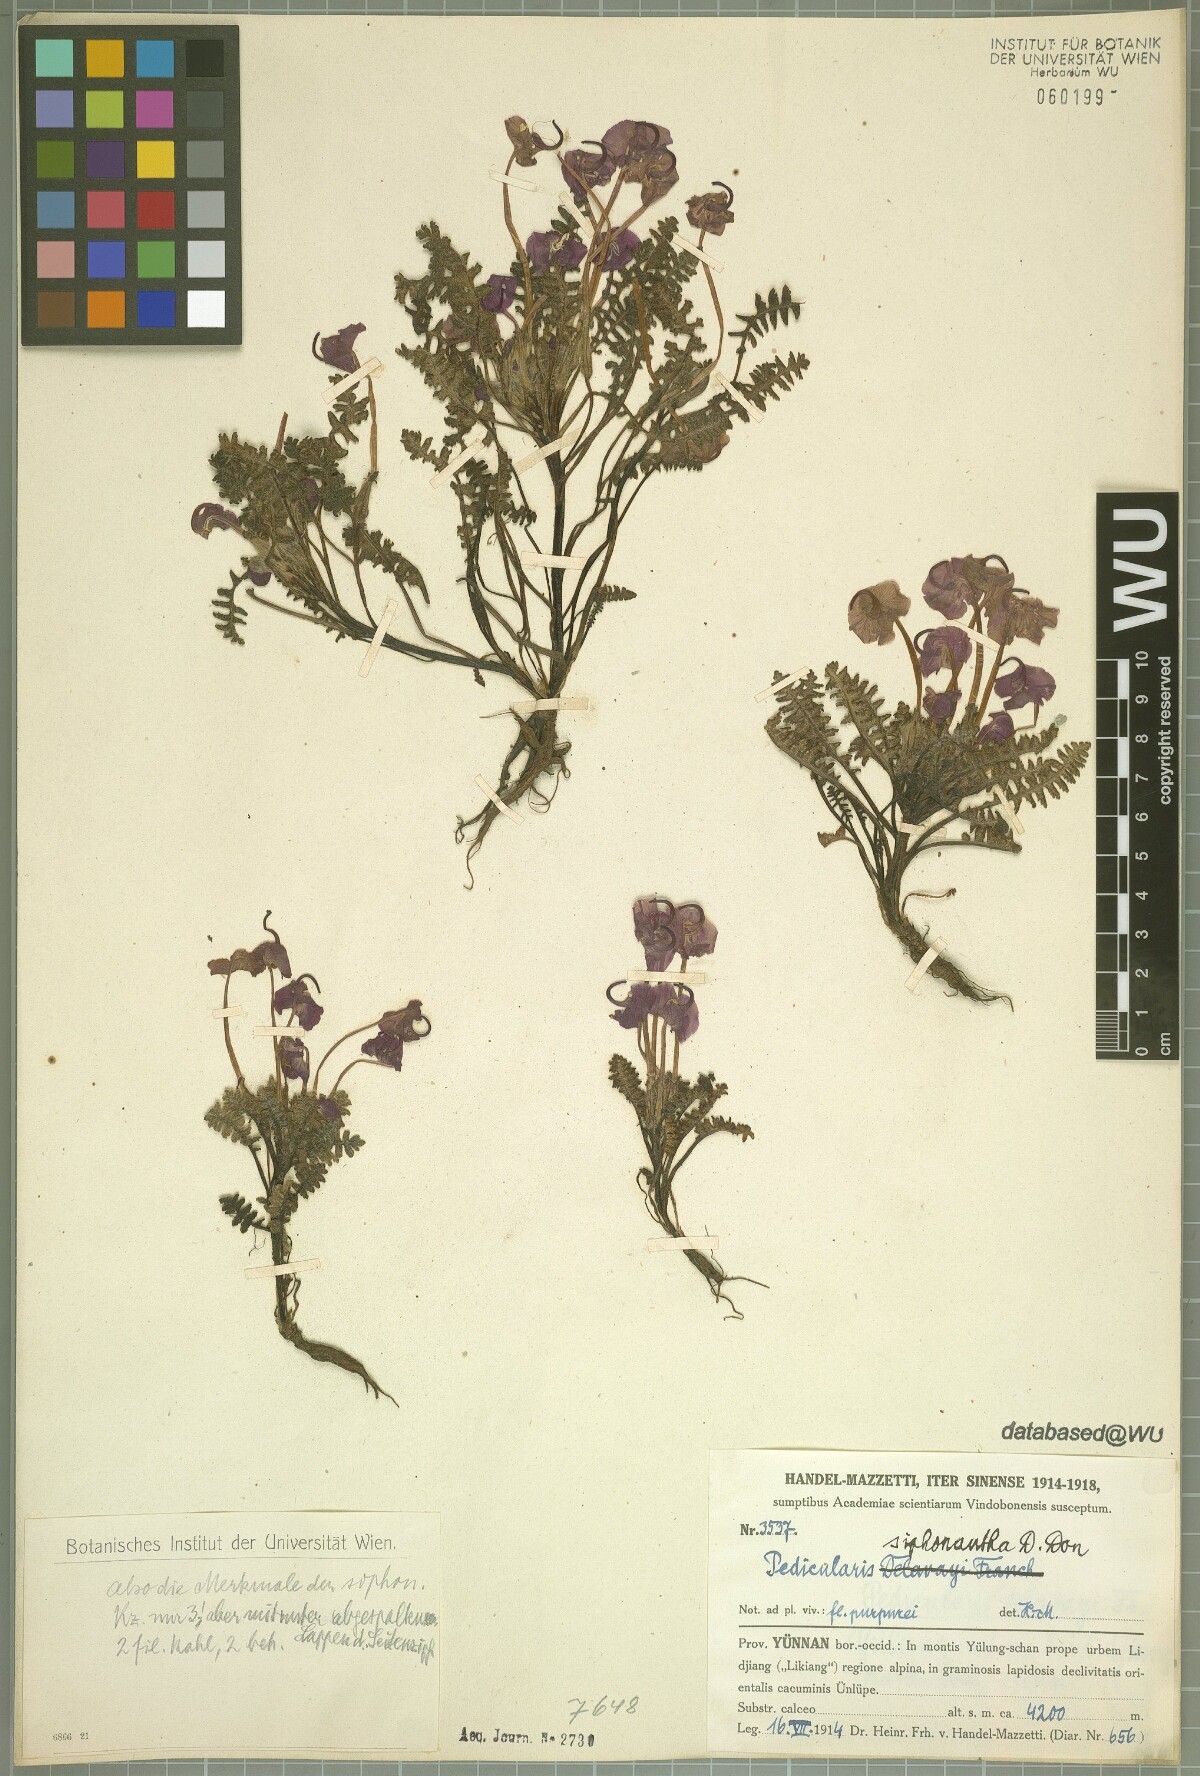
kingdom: Plantae
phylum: Tracheophyta
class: Magnoliopsida
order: Lamiales
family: Orobanchaceae
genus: Pedicularis
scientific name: Pedicularis siphonantha
